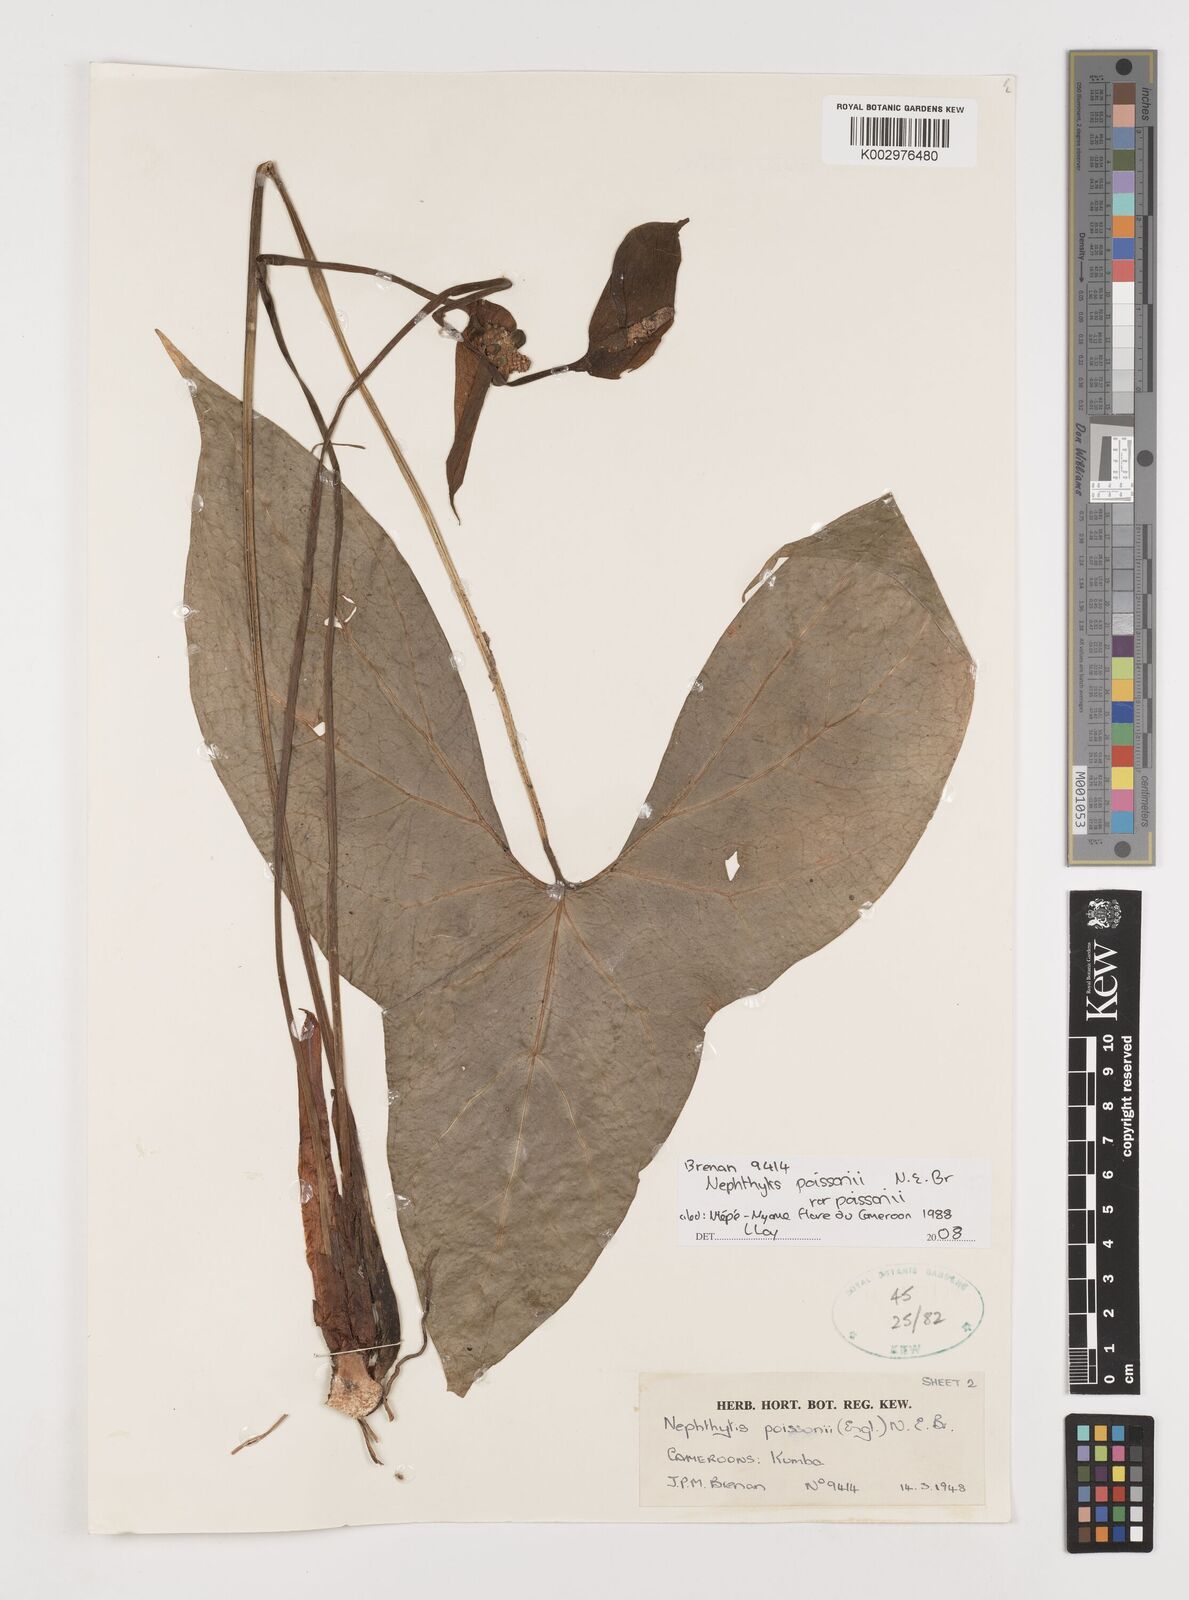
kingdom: Plantae
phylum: Tracheophyta
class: Liliopsida
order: Alismatales
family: Araceae
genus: Nephthytis
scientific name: Nephthytis poissonii
